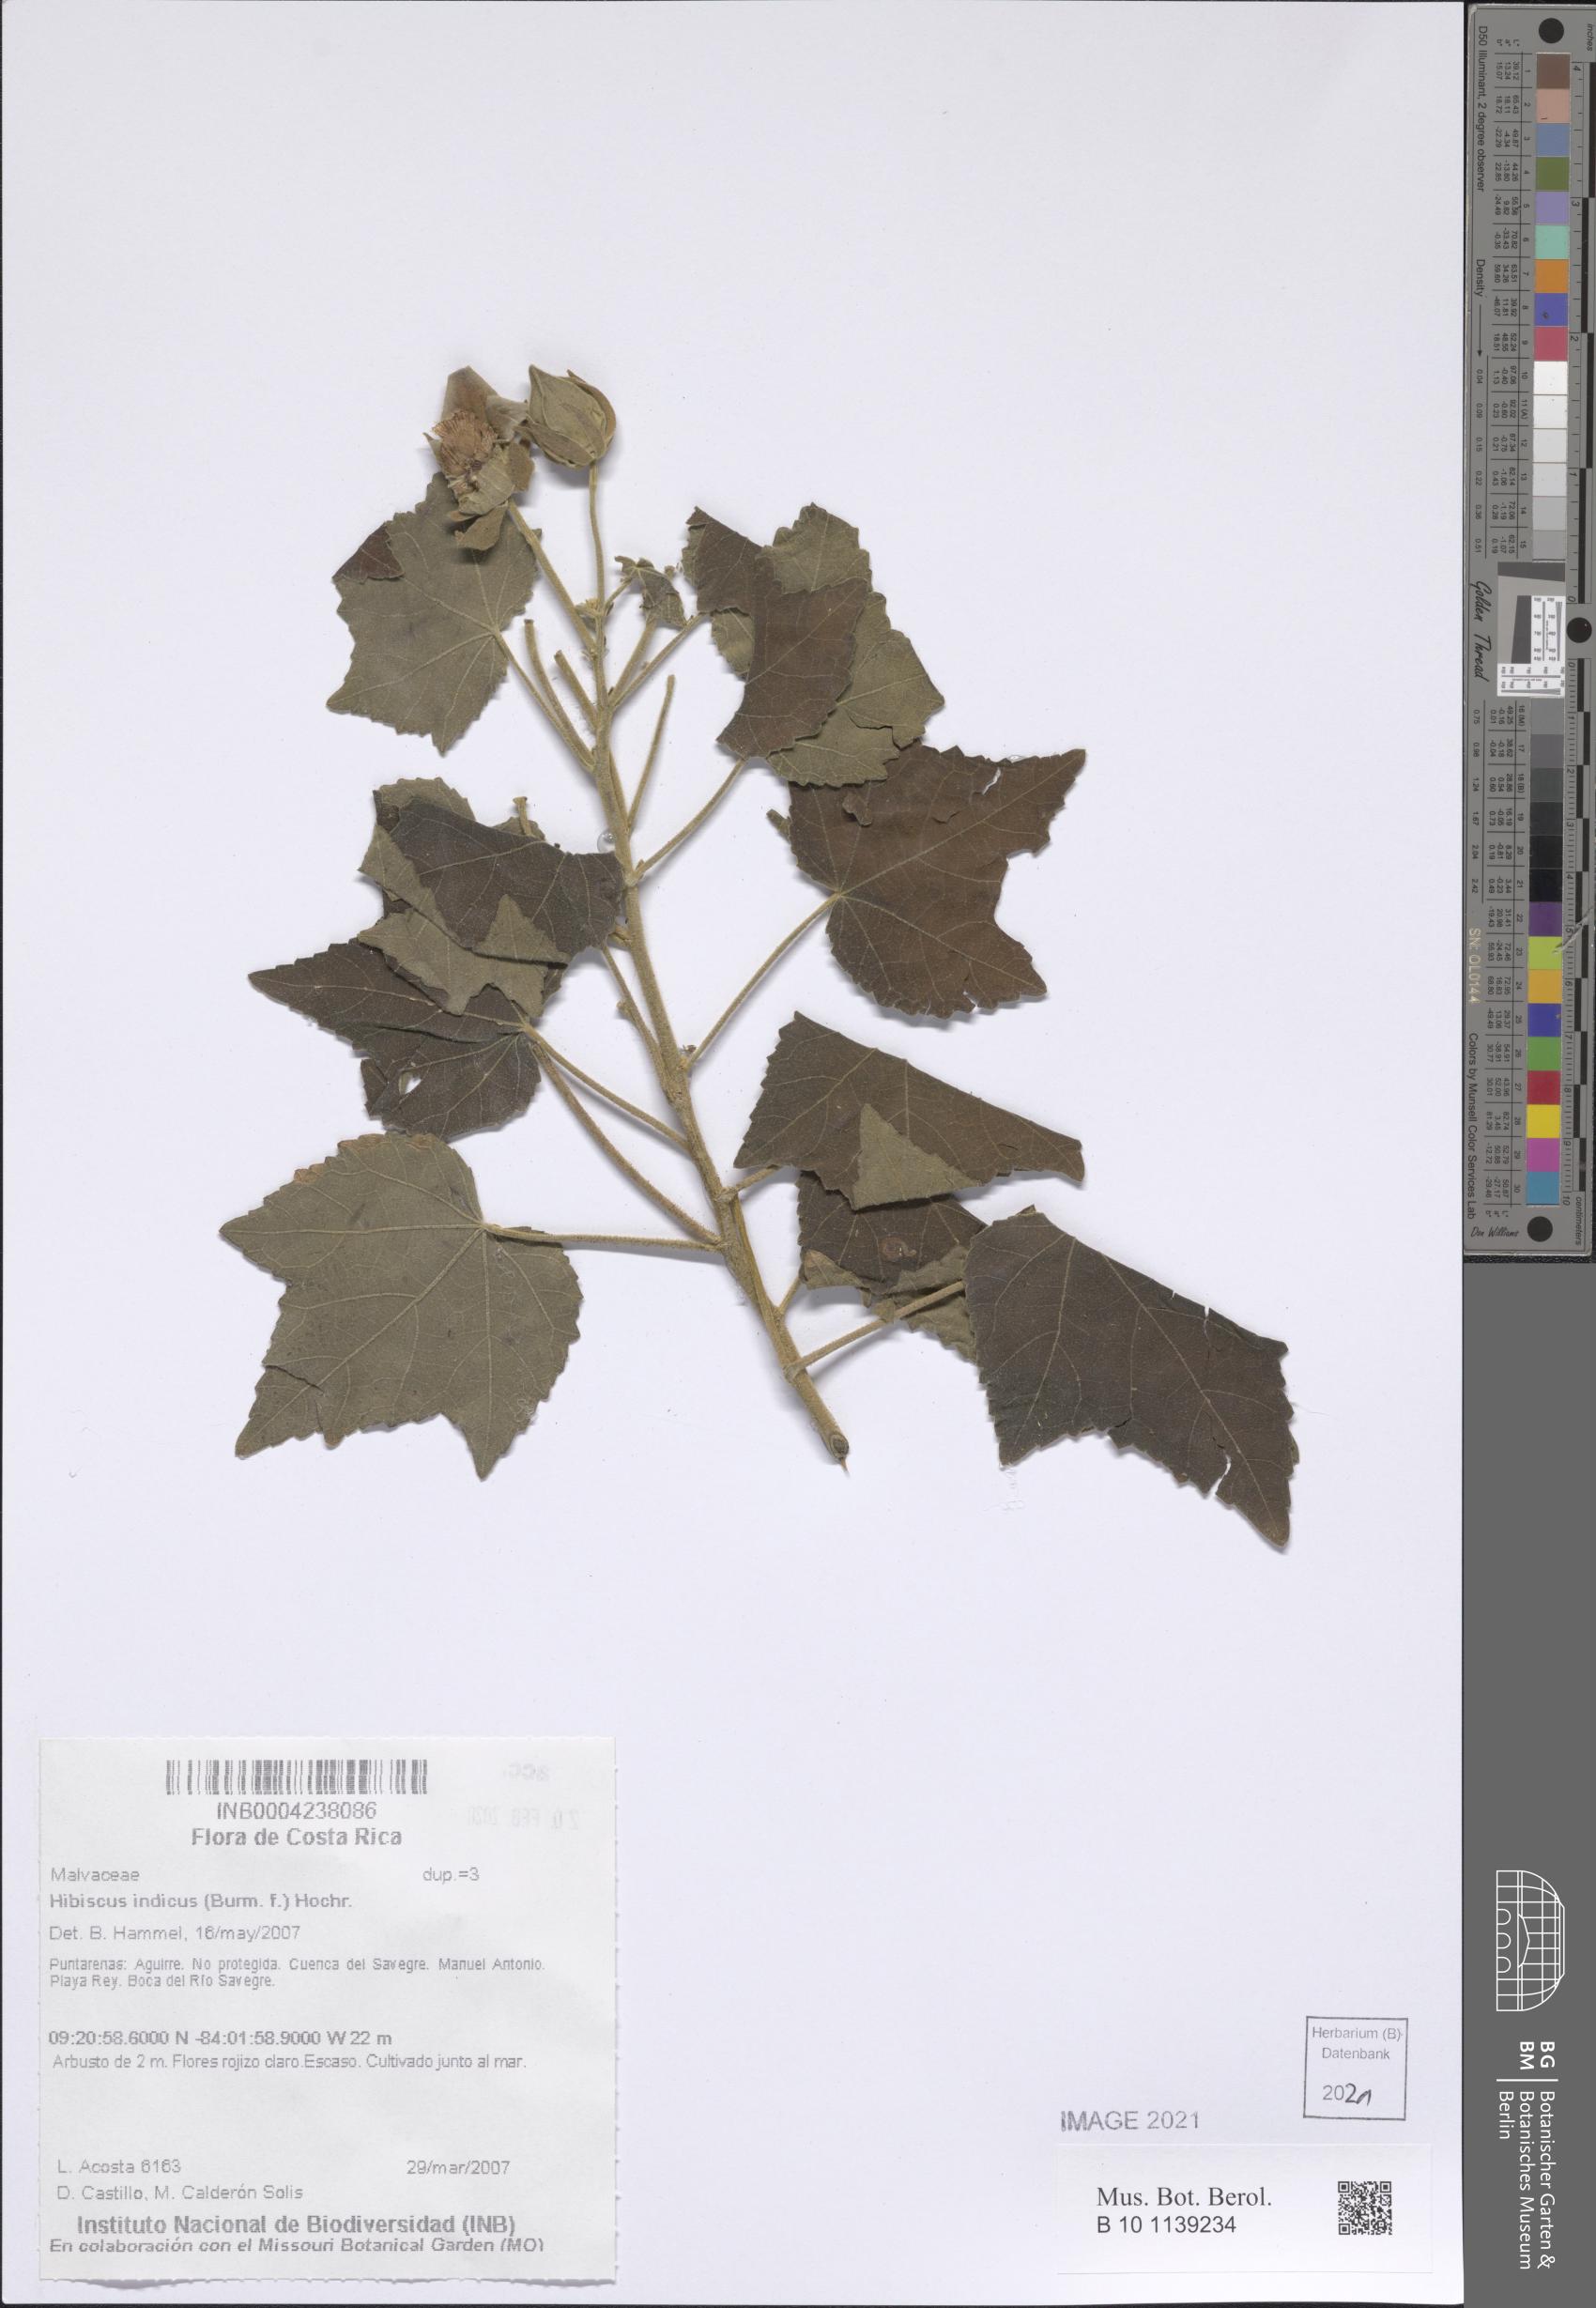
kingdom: Plantae
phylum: Tracheophyta
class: Magnoliopsida
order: Malvales
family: Malvaceae
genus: Hibiscus
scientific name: Hibiscus indicus
